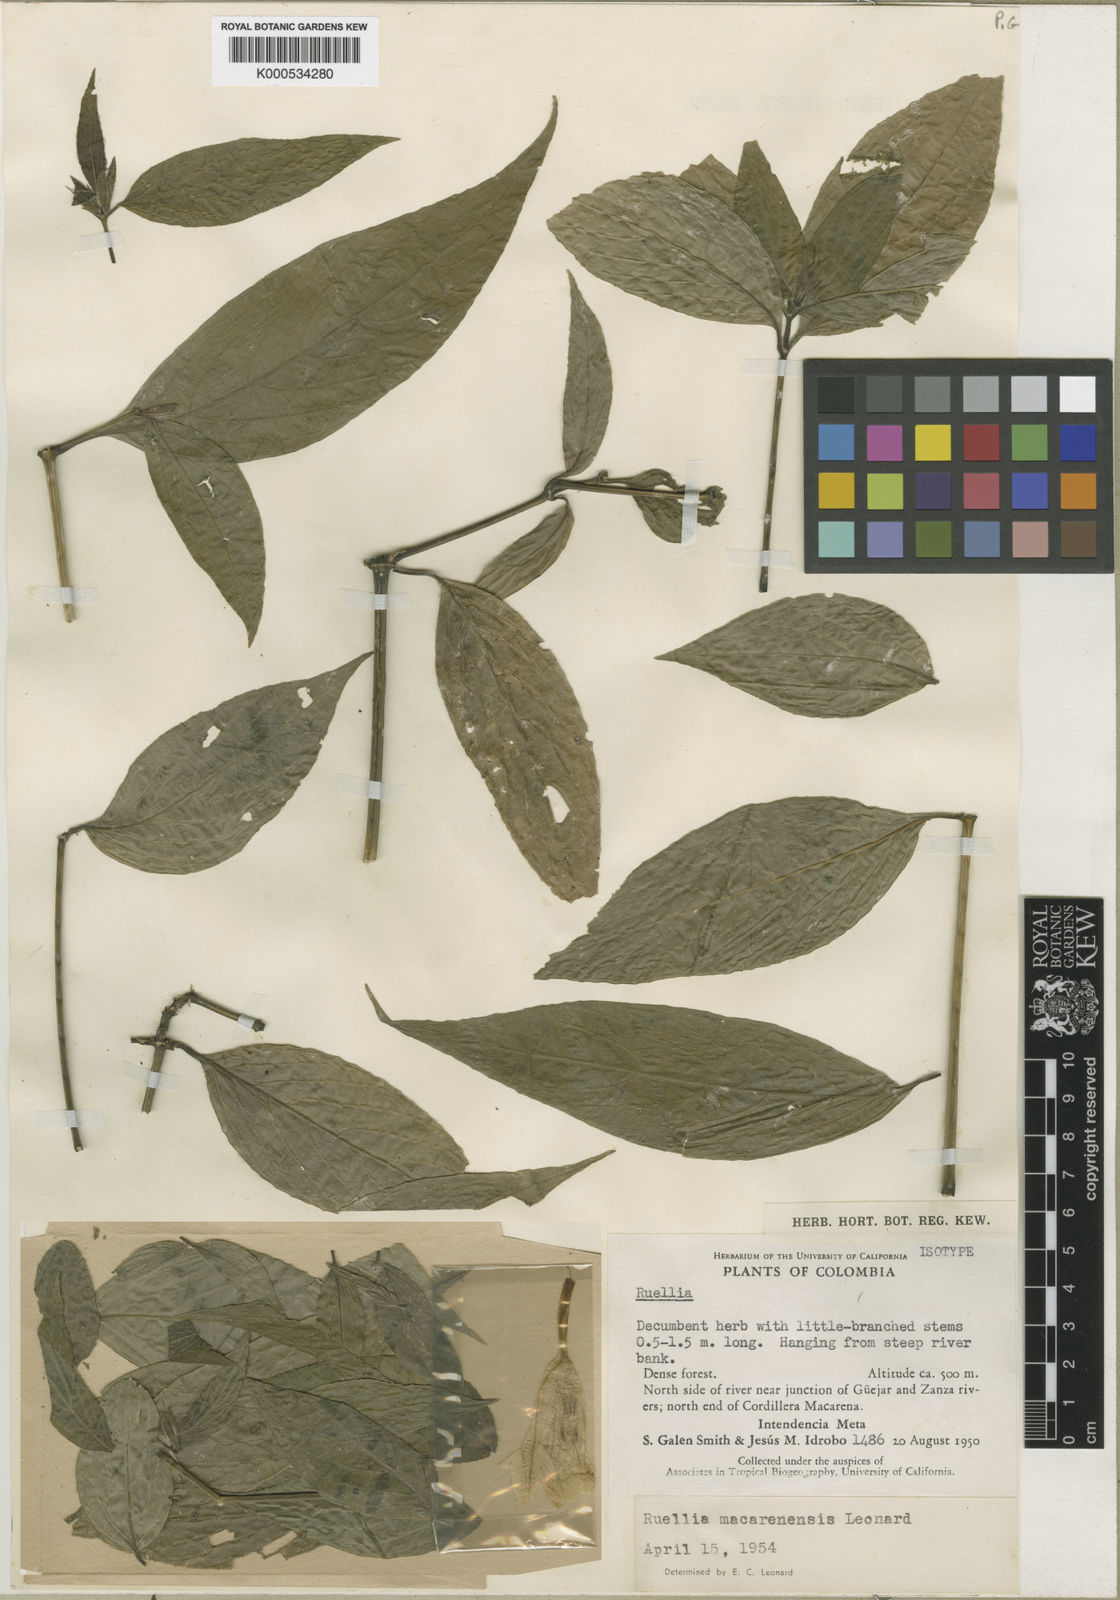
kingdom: Plantae
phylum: Tracheophyta
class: Magnoliopsida
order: Lamiales
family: Acanthaceae
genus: Ruellia
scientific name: Ruellia macarenensis
